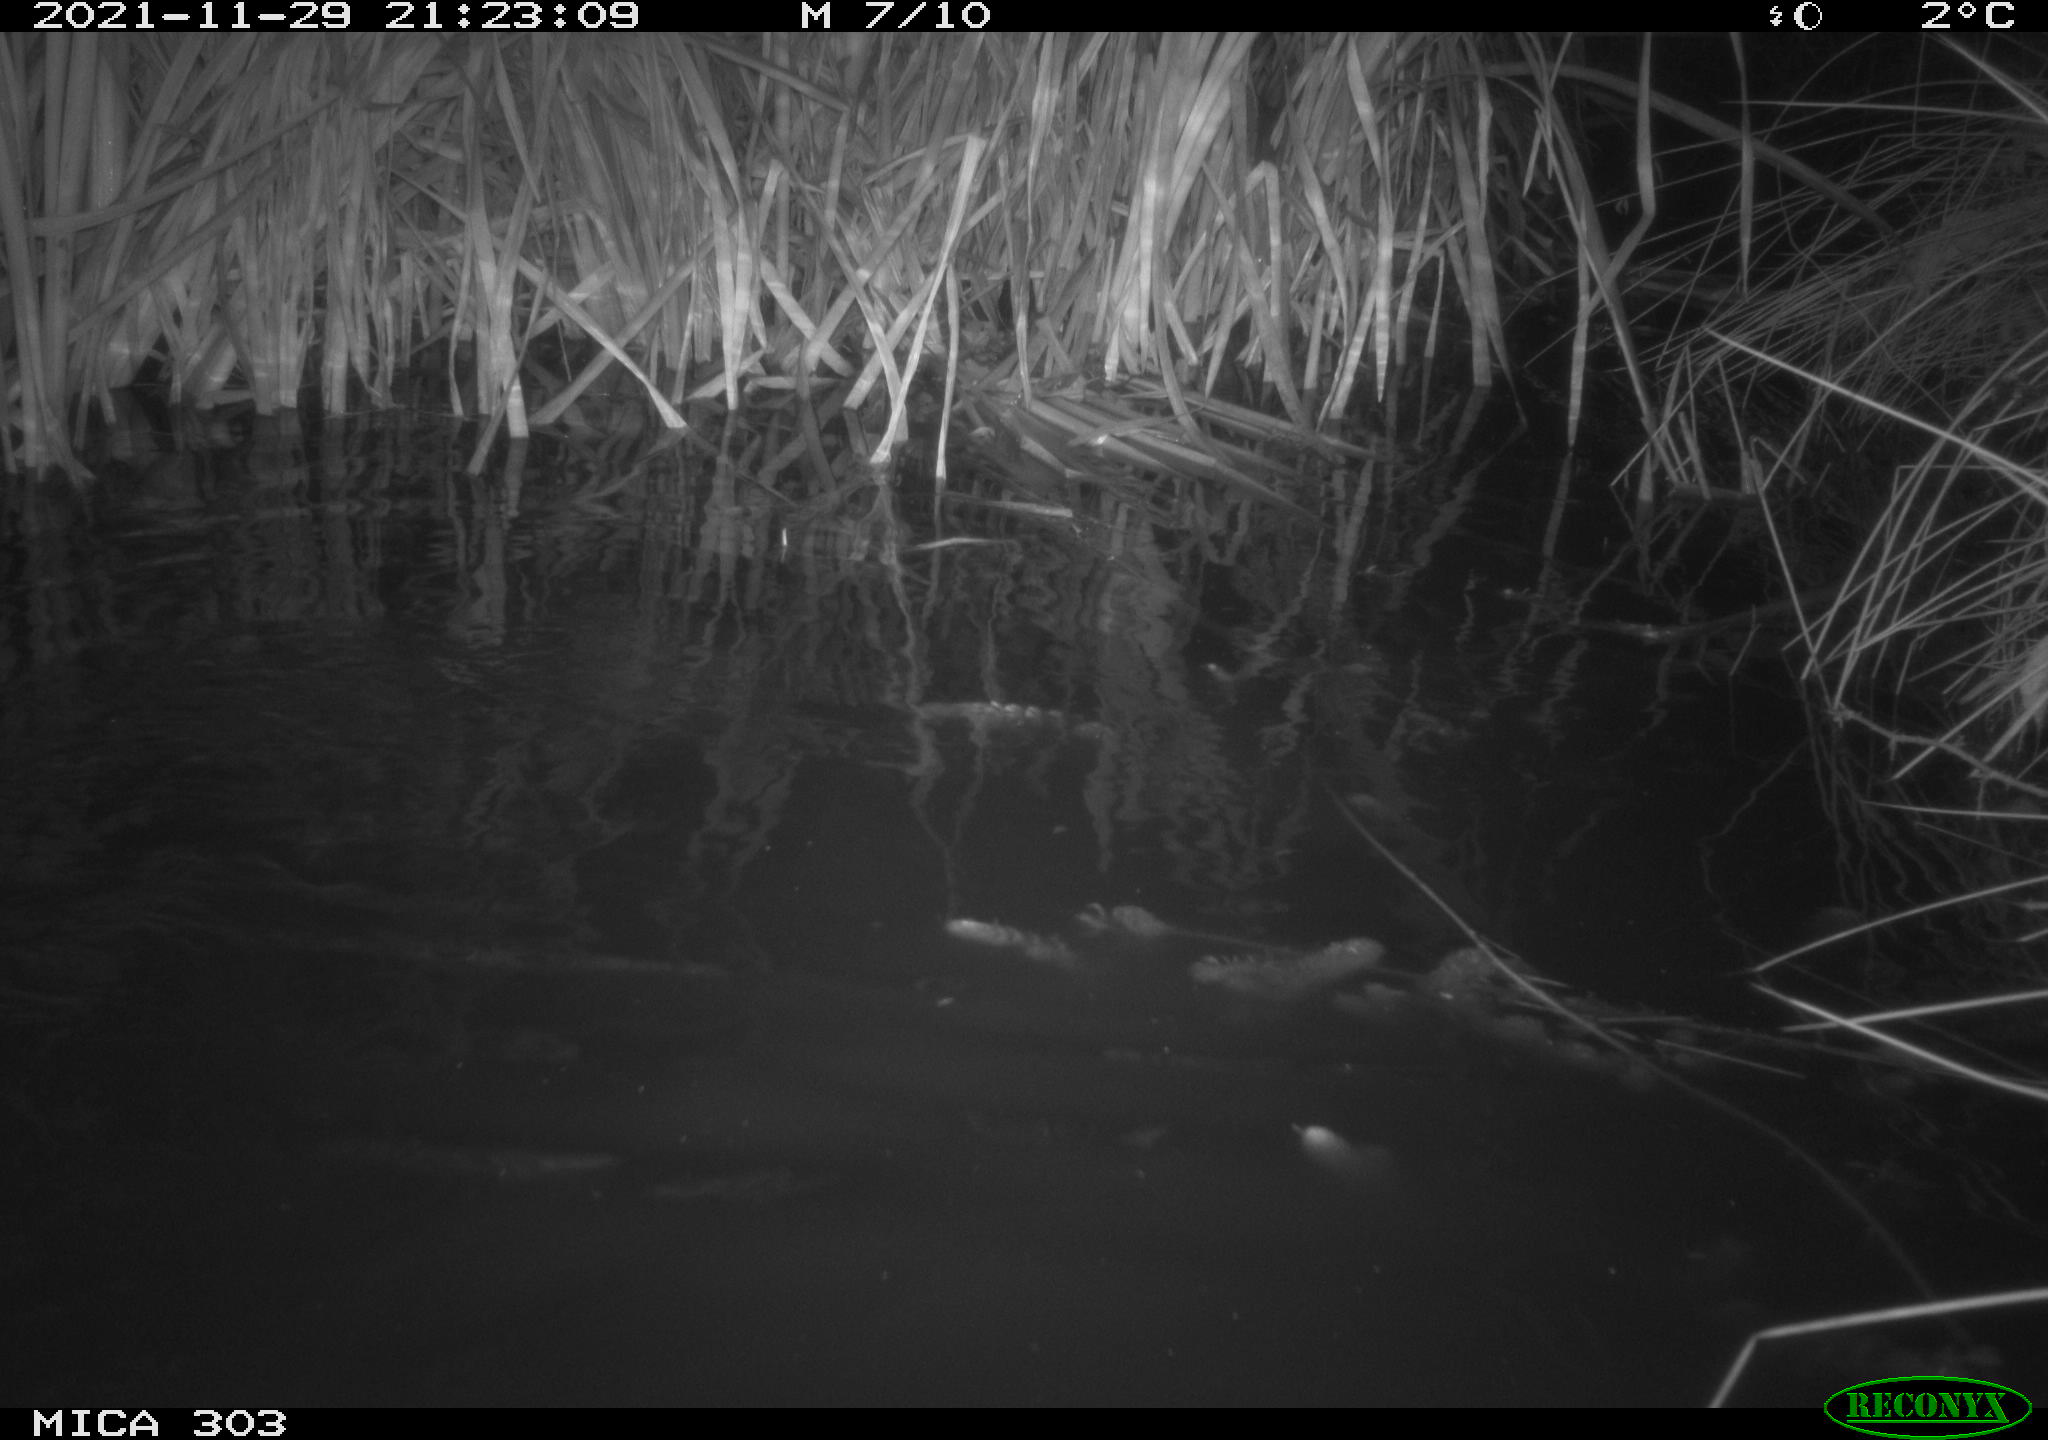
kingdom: Animalia
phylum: Chordata
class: Mammalia
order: Rodentia
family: Myocastoridae
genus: Myocastor
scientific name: Myocastor coypus
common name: Coypu
